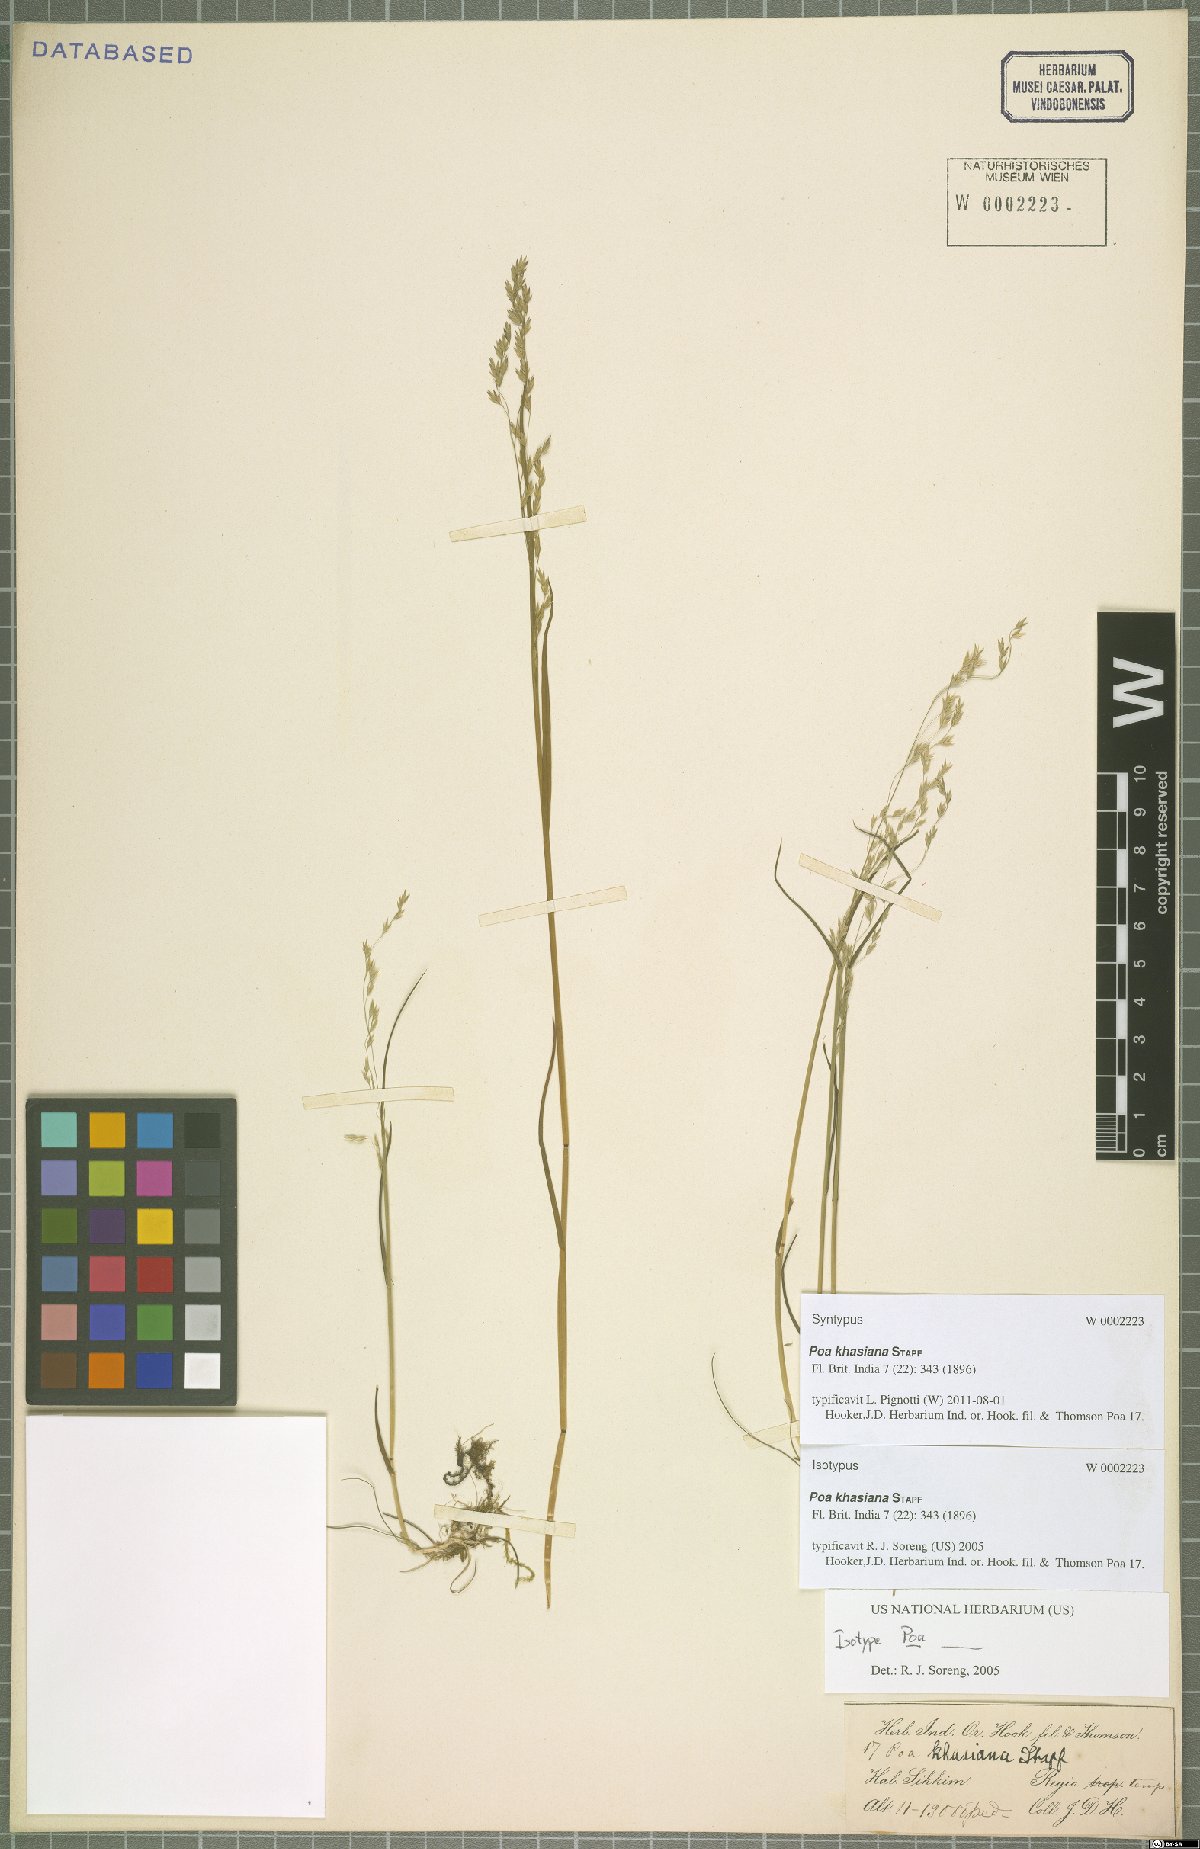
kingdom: Plantae
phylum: Tracheophyta
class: Liliopsida
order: Poales
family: Poaceae
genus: Poa
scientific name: Poa khasiana
